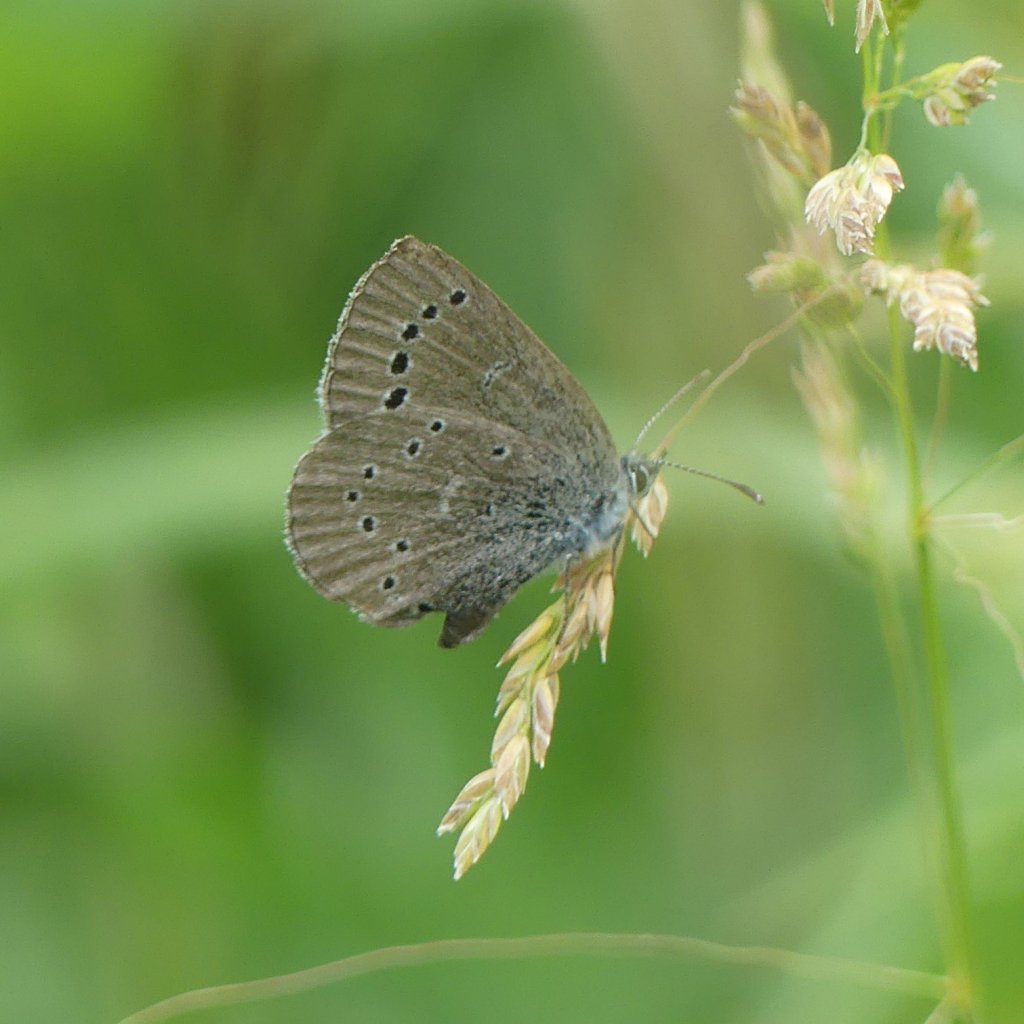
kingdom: Animalia
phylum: Arthropoda
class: Insecta
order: Lepidoptera
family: Lycaenidae
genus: Glaucopsyche
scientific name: Glaucopsyche lygdamus
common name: Silvery Blue
